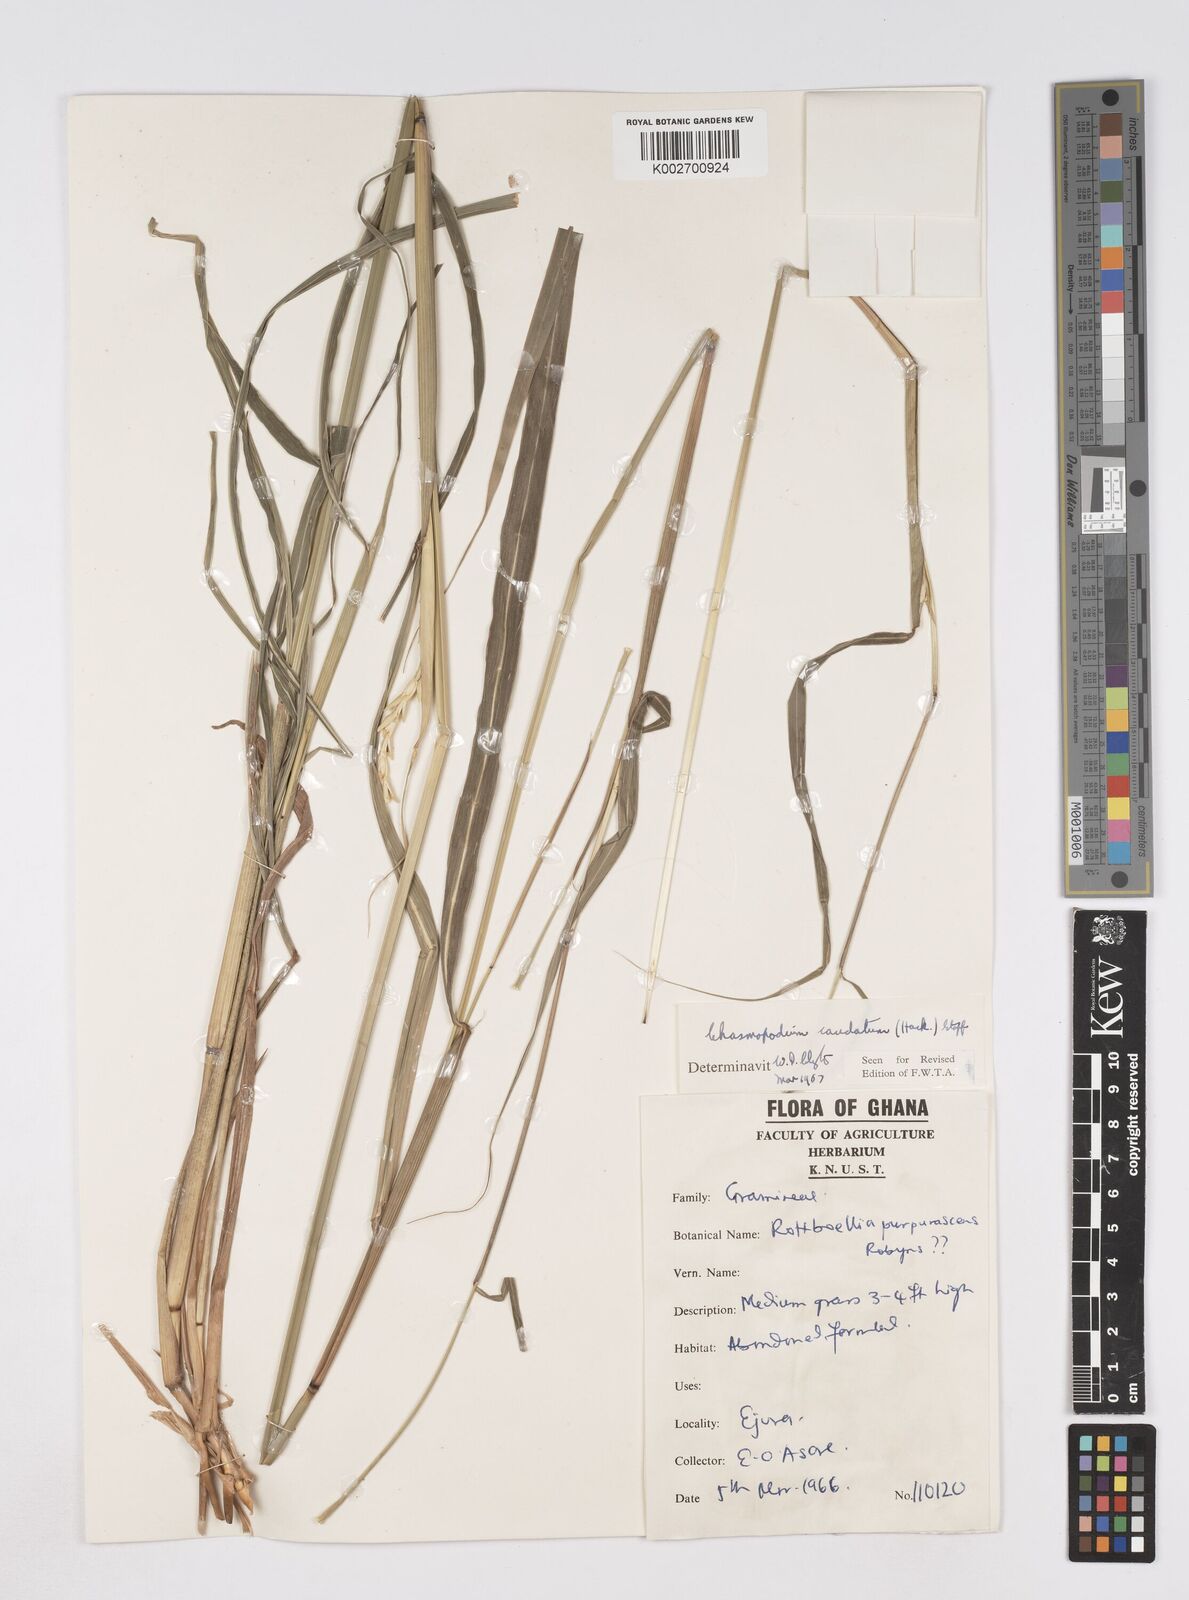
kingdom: Plantae
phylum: Tracheophyta
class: Liliopsida
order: Poales
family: Poaceae
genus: Chasmopodium
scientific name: Chasmopodium caudatum
